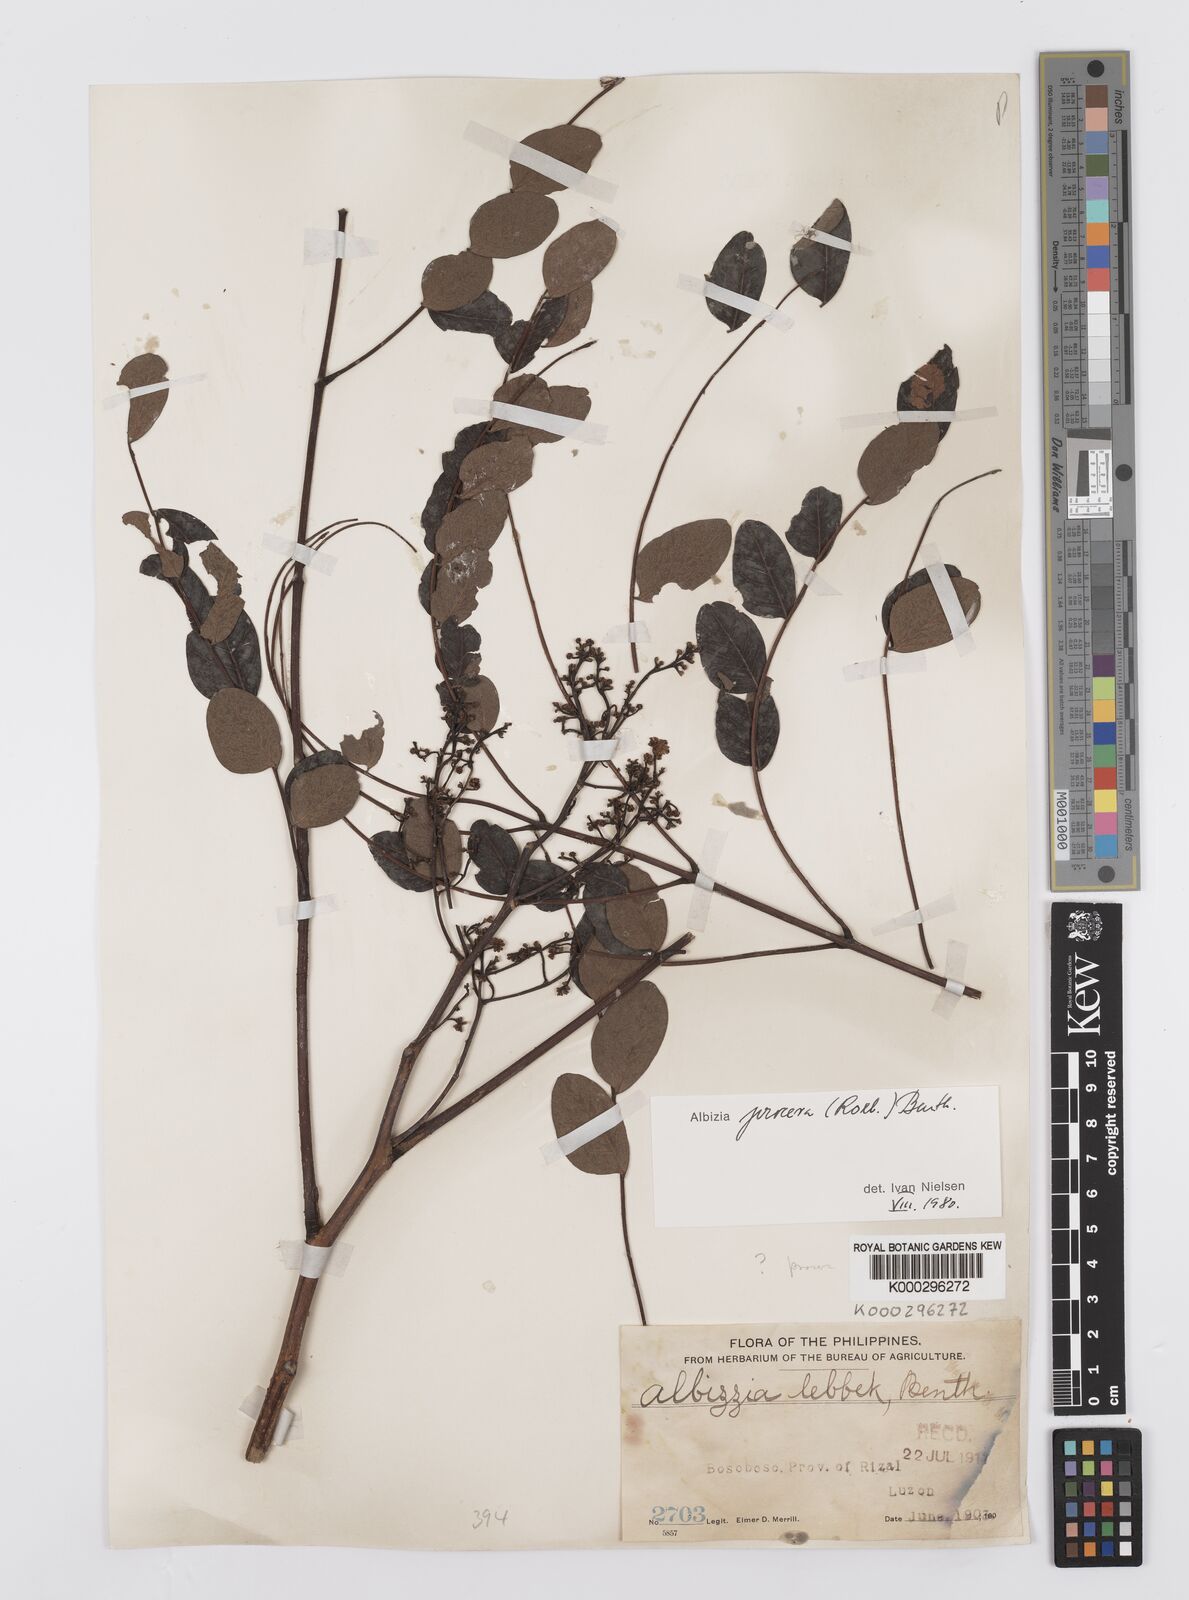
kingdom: Plantae
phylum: Tracheophyta
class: Magnoliopsida
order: Fabales
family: Fabaceae
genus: Albizia
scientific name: Albizia procera
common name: Tall albizia
